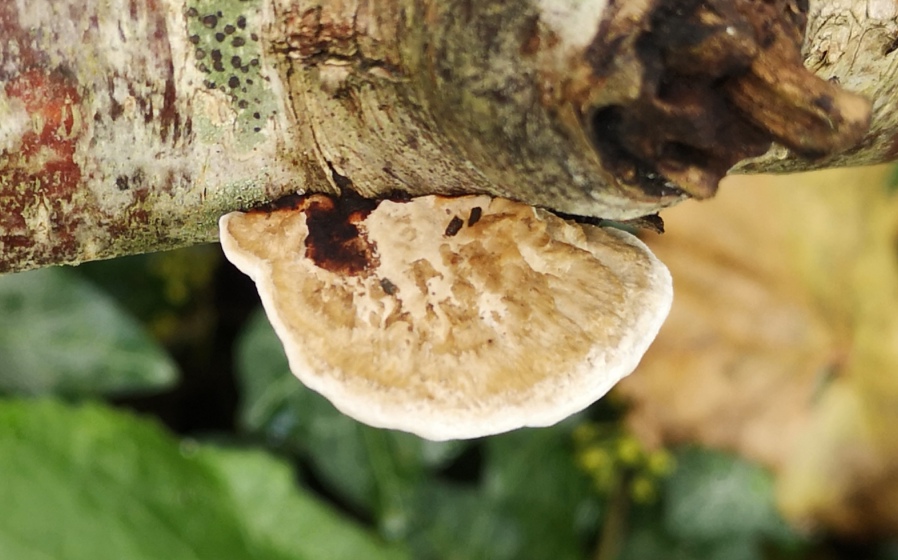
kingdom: Fungi
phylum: Basidiomycota
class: Agaricomycetes
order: Polyporales
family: Polyporaceae
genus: Daedaleopsis
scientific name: Daedaleopsis confragosa
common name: rødmende læderporesvamp
